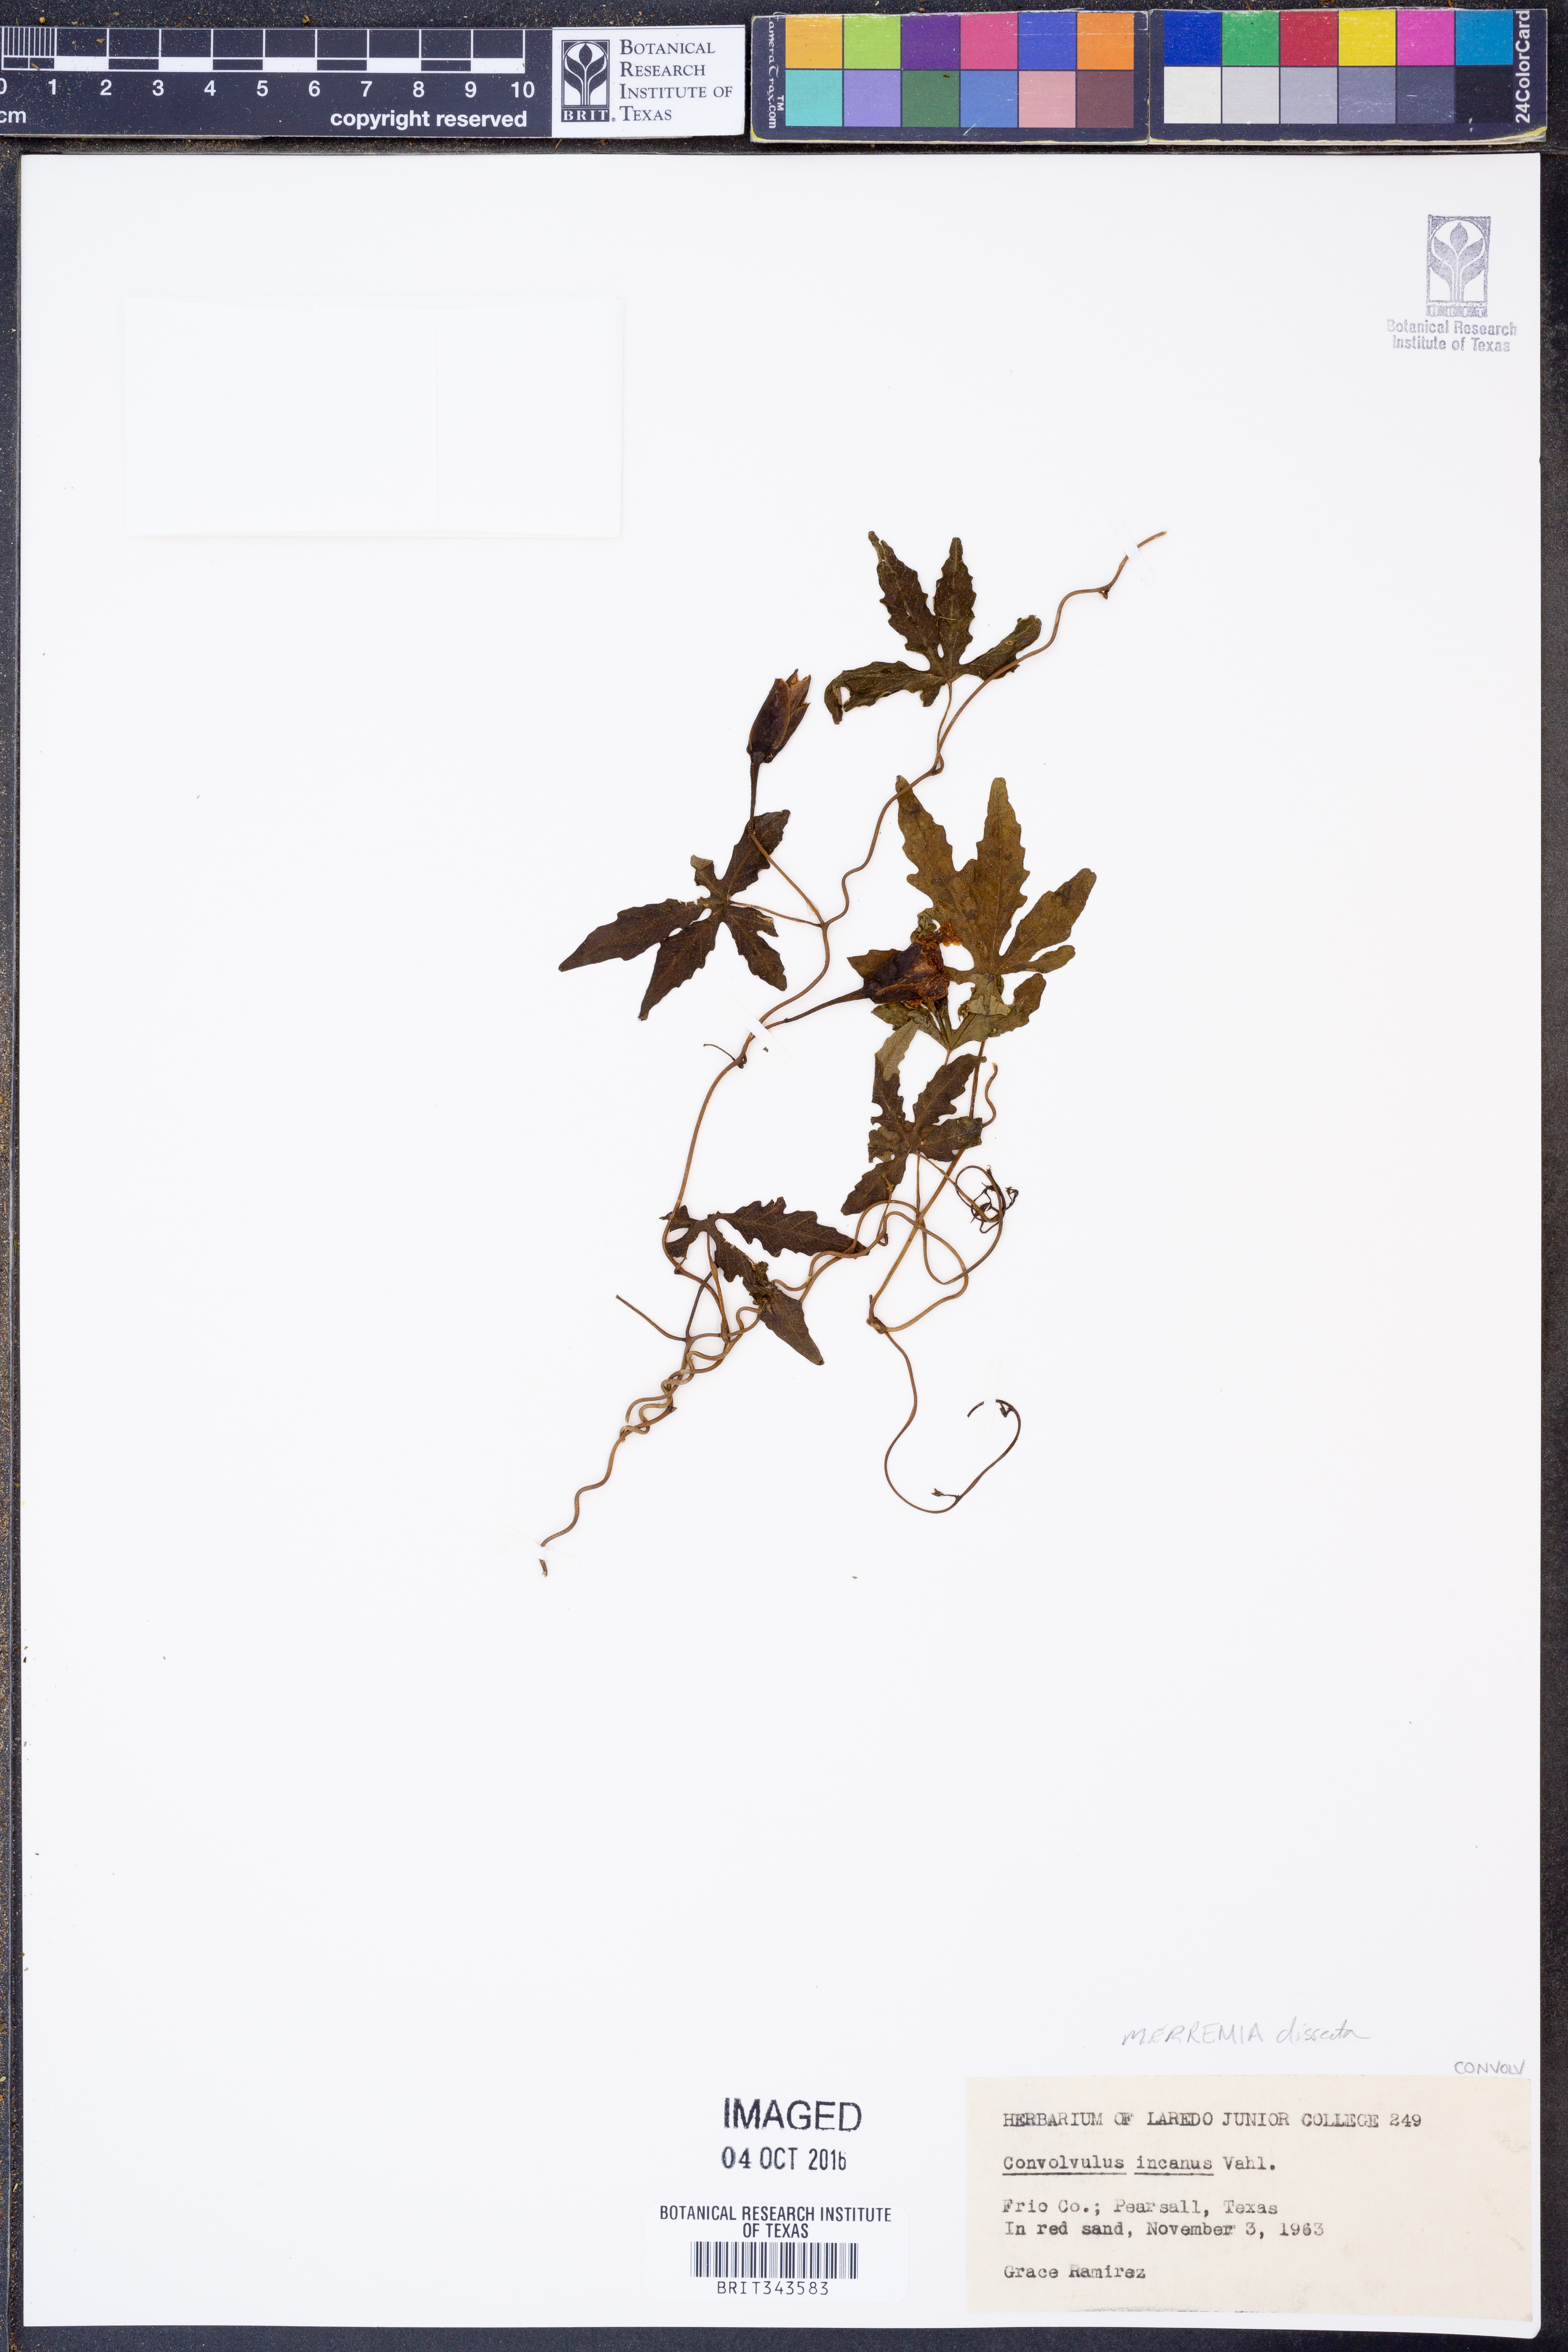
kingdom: Plantae
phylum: Tracheophyta
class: Magnoliopsida
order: Solanales
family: Convolvulaceae
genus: Distimake
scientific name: Distimake dissectus
